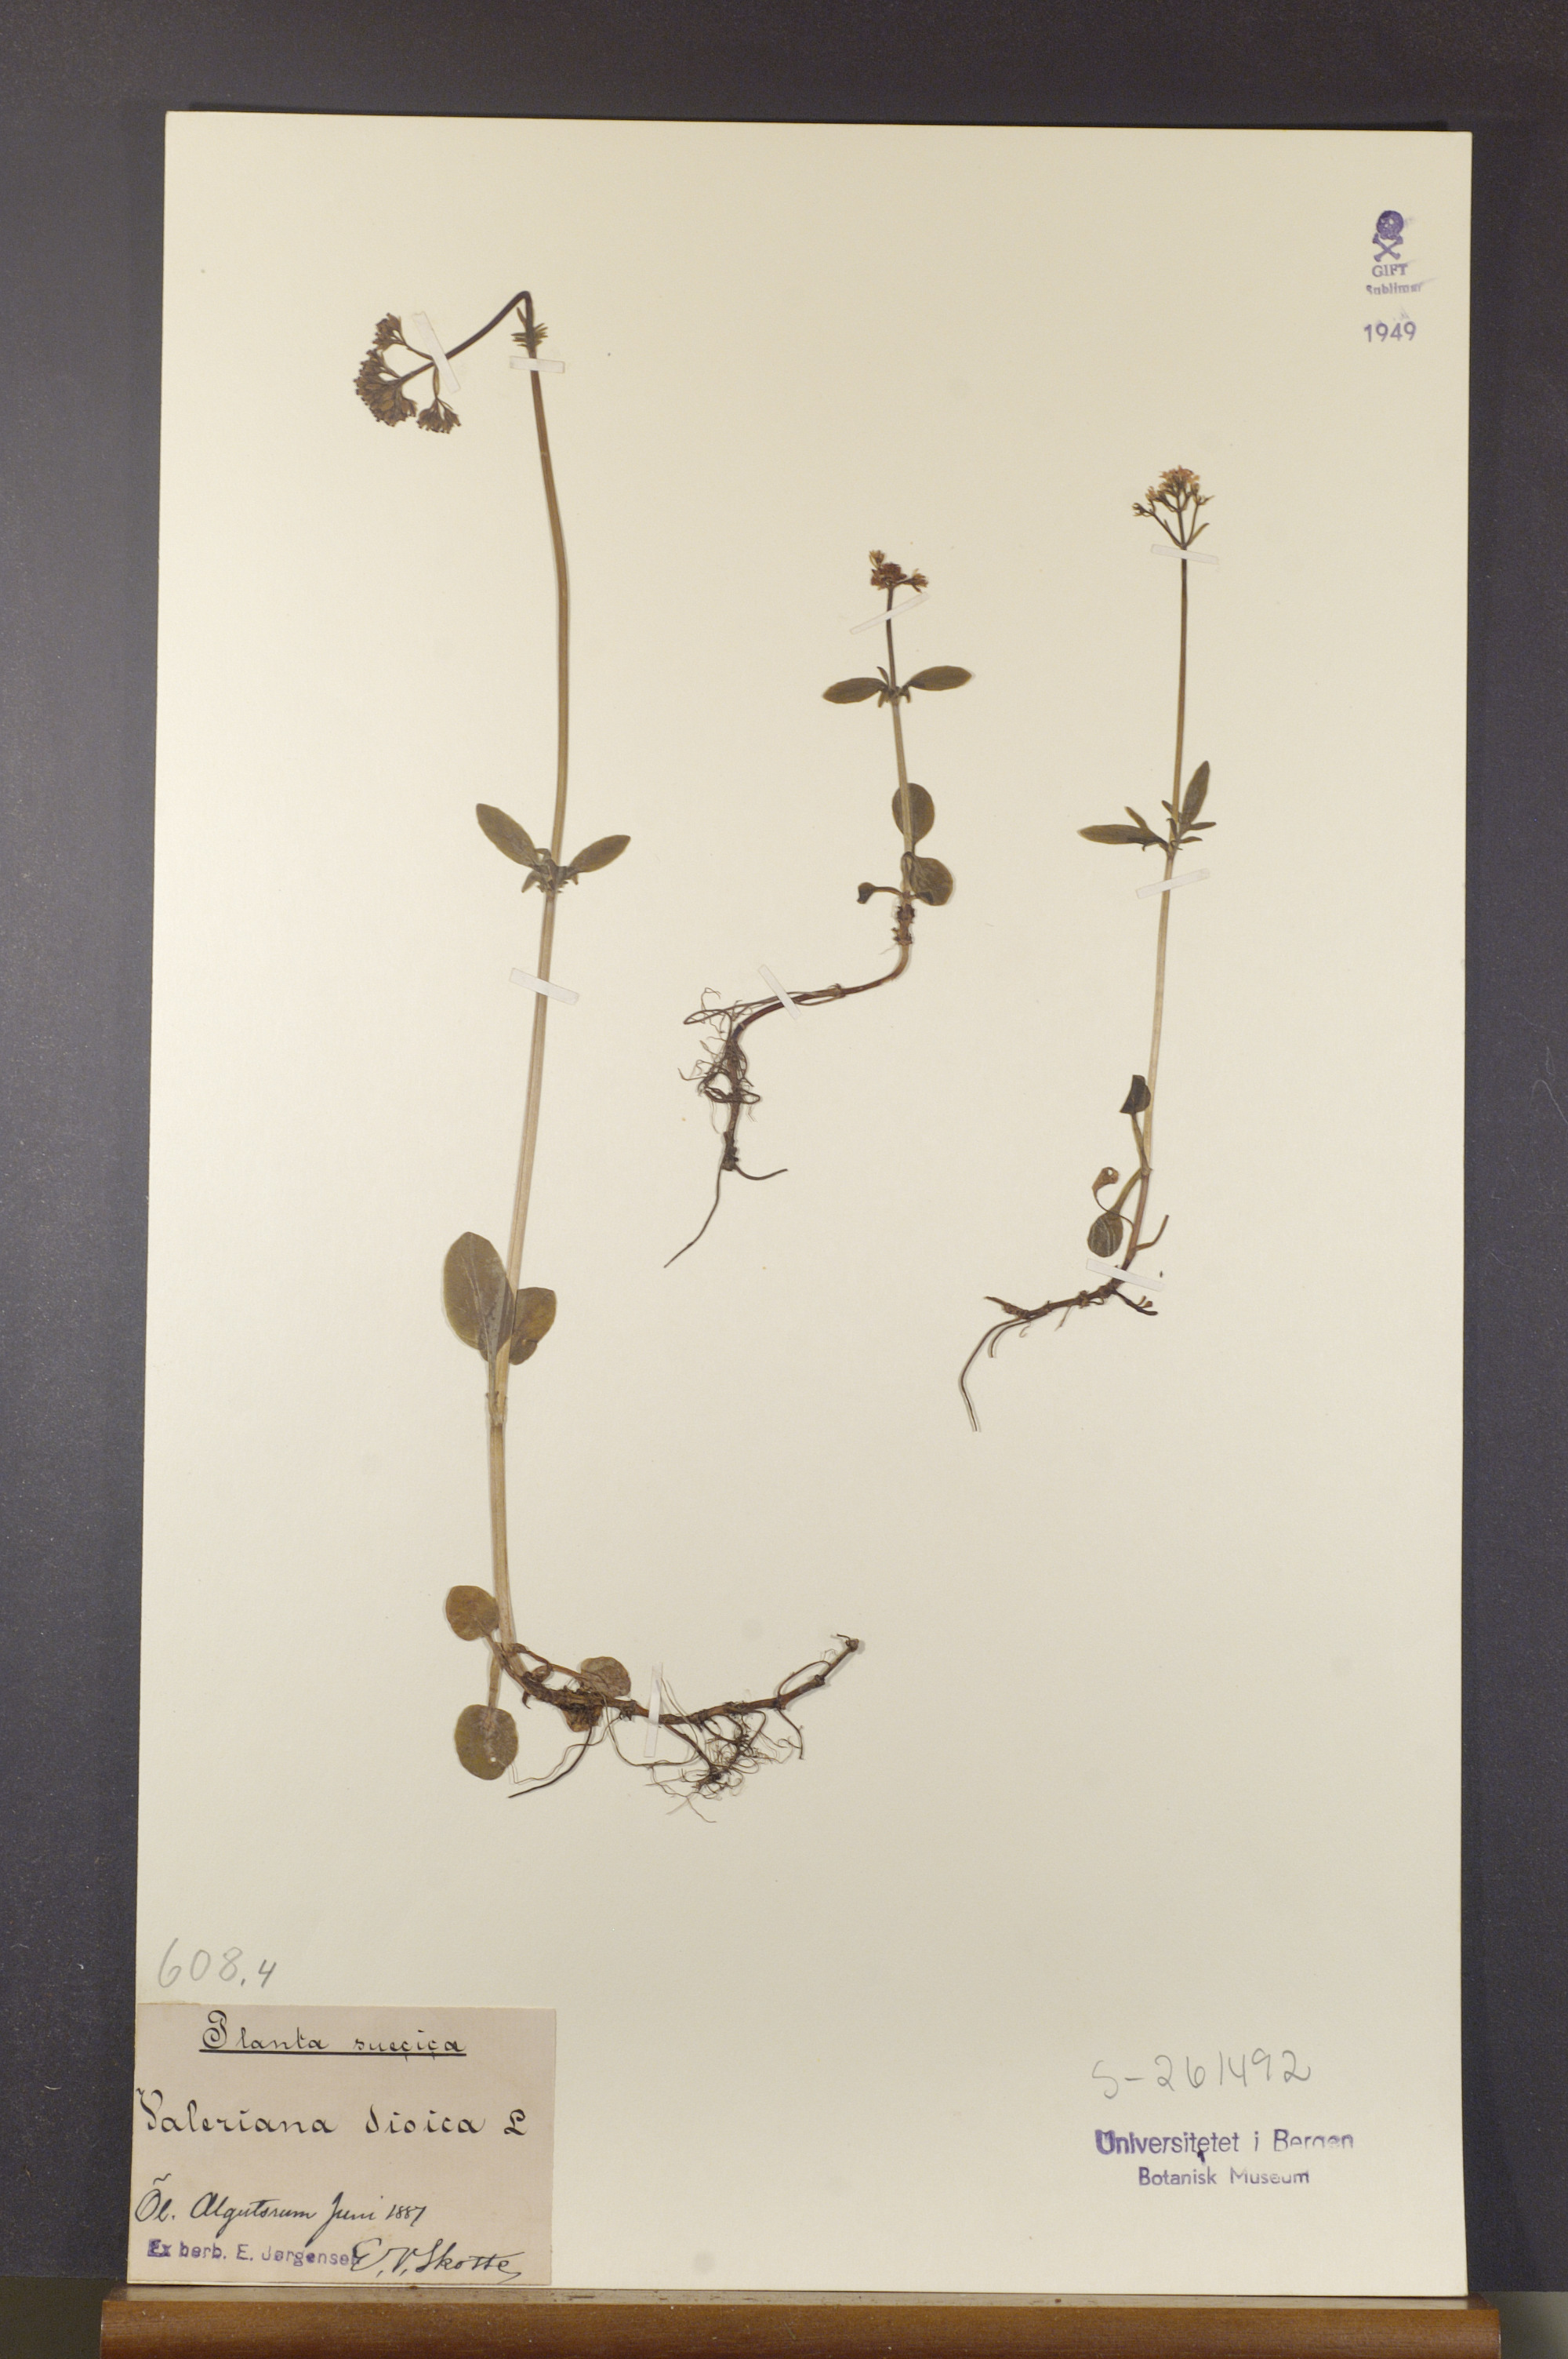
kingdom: Plantae
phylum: Tracheophyta
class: Magnoliopsida
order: Dipsacales
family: Caprifoliaceae
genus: Valeriana
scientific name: Valeriana dioica
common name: Marsh valerian
